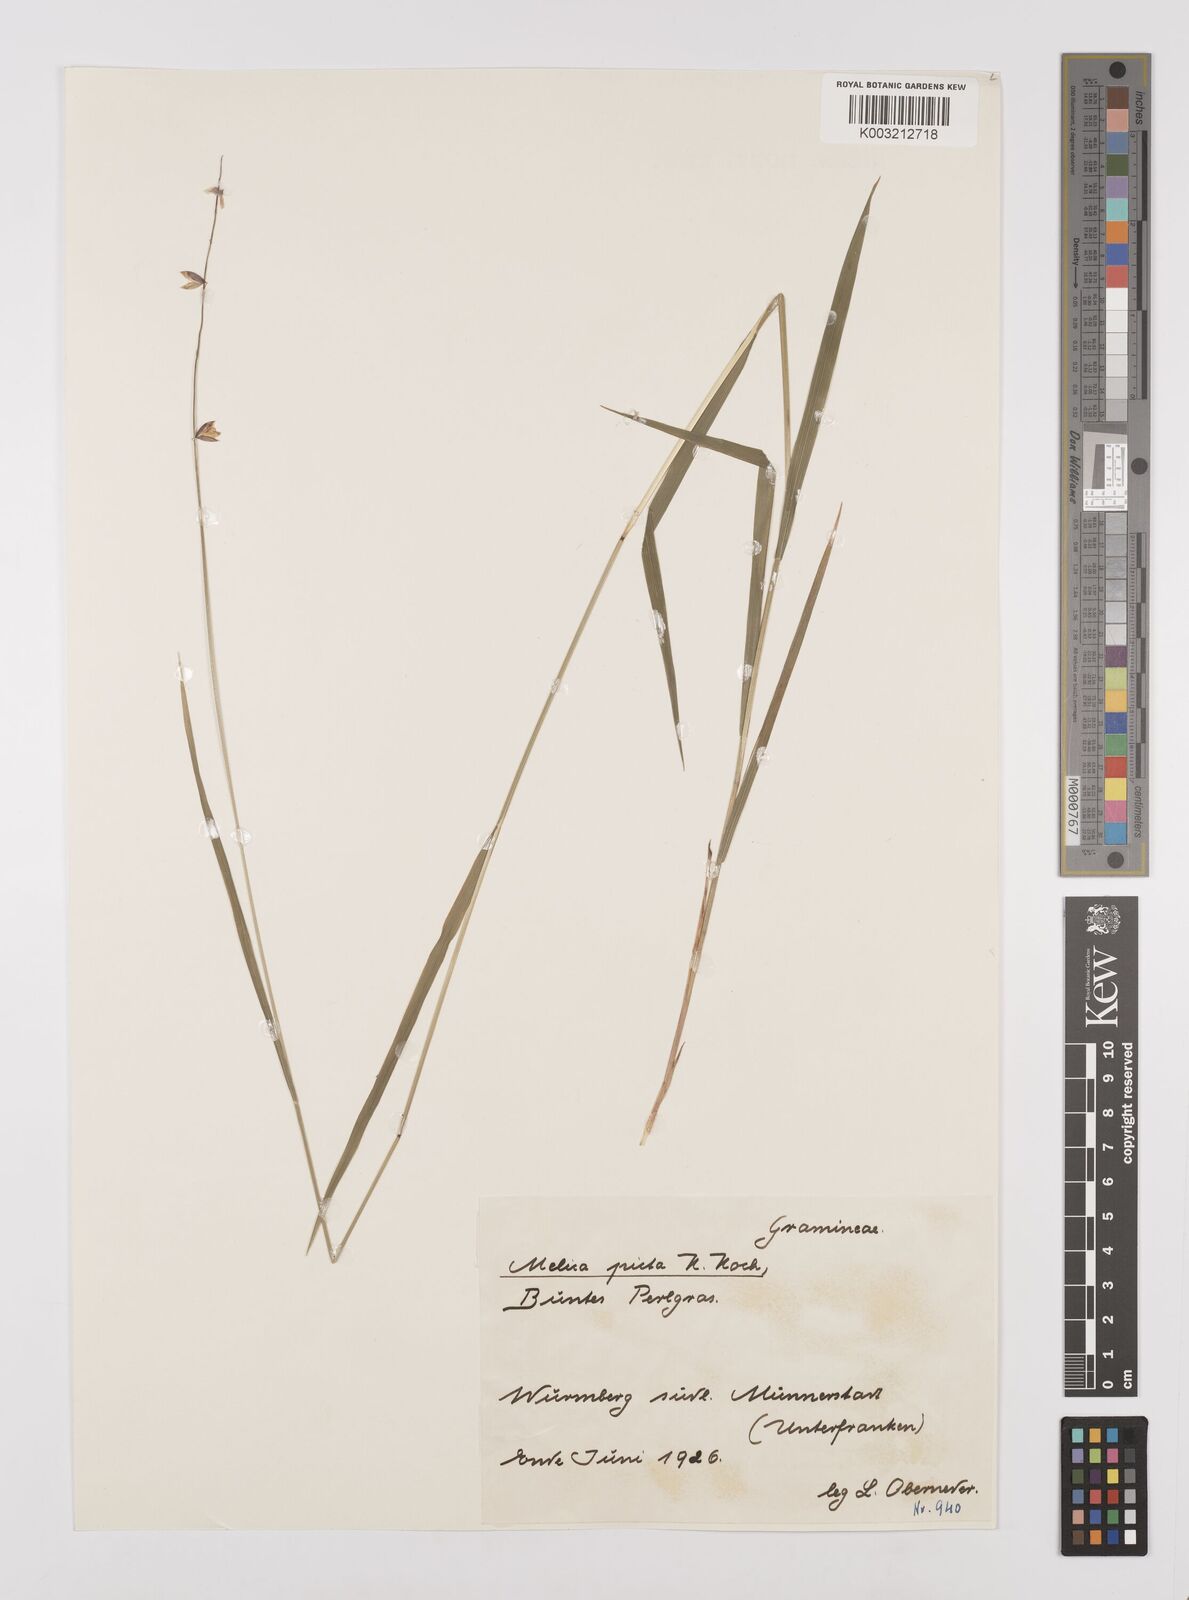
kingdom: Plantae
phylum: Tracheophyta
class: Liliopsida
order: Poales
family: Poaceae
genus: Melica
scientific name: Melica picta
